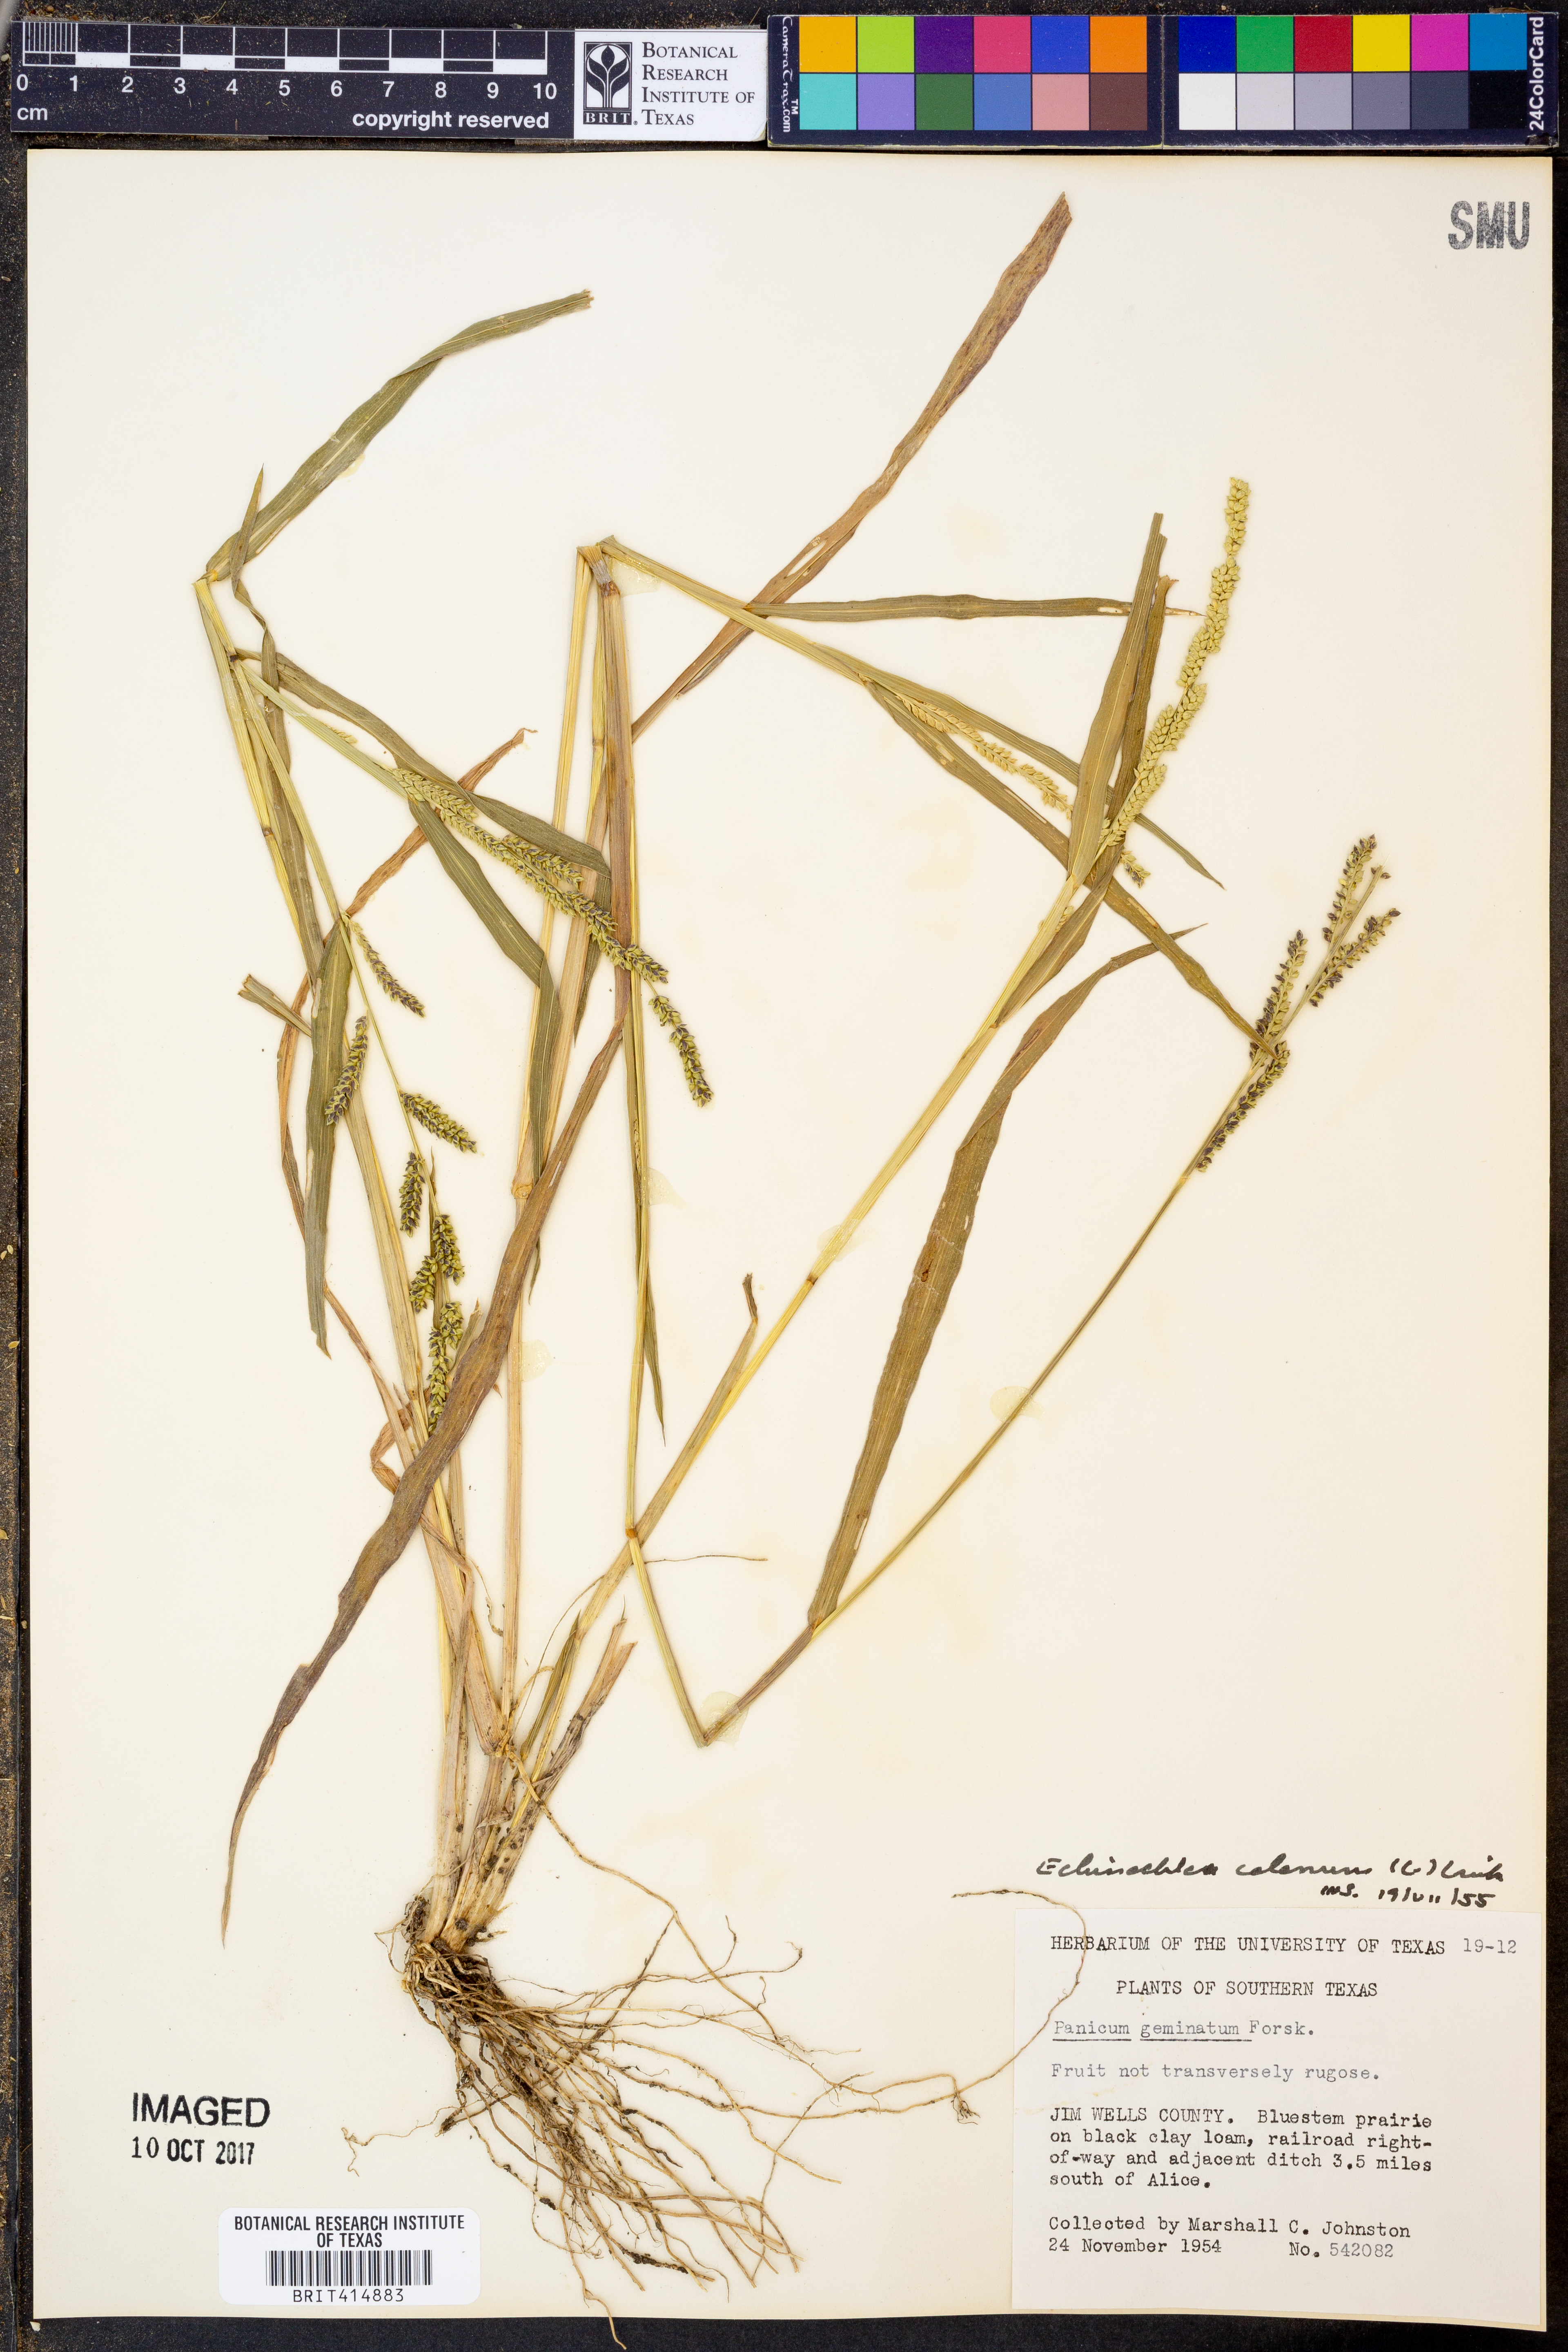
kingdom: Plantae
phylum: Tracheophyta
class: Liliopsida
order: Poales
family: Poaceae
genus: Echinochloa
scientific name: Echinochloa colonum
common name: Jungle rice
